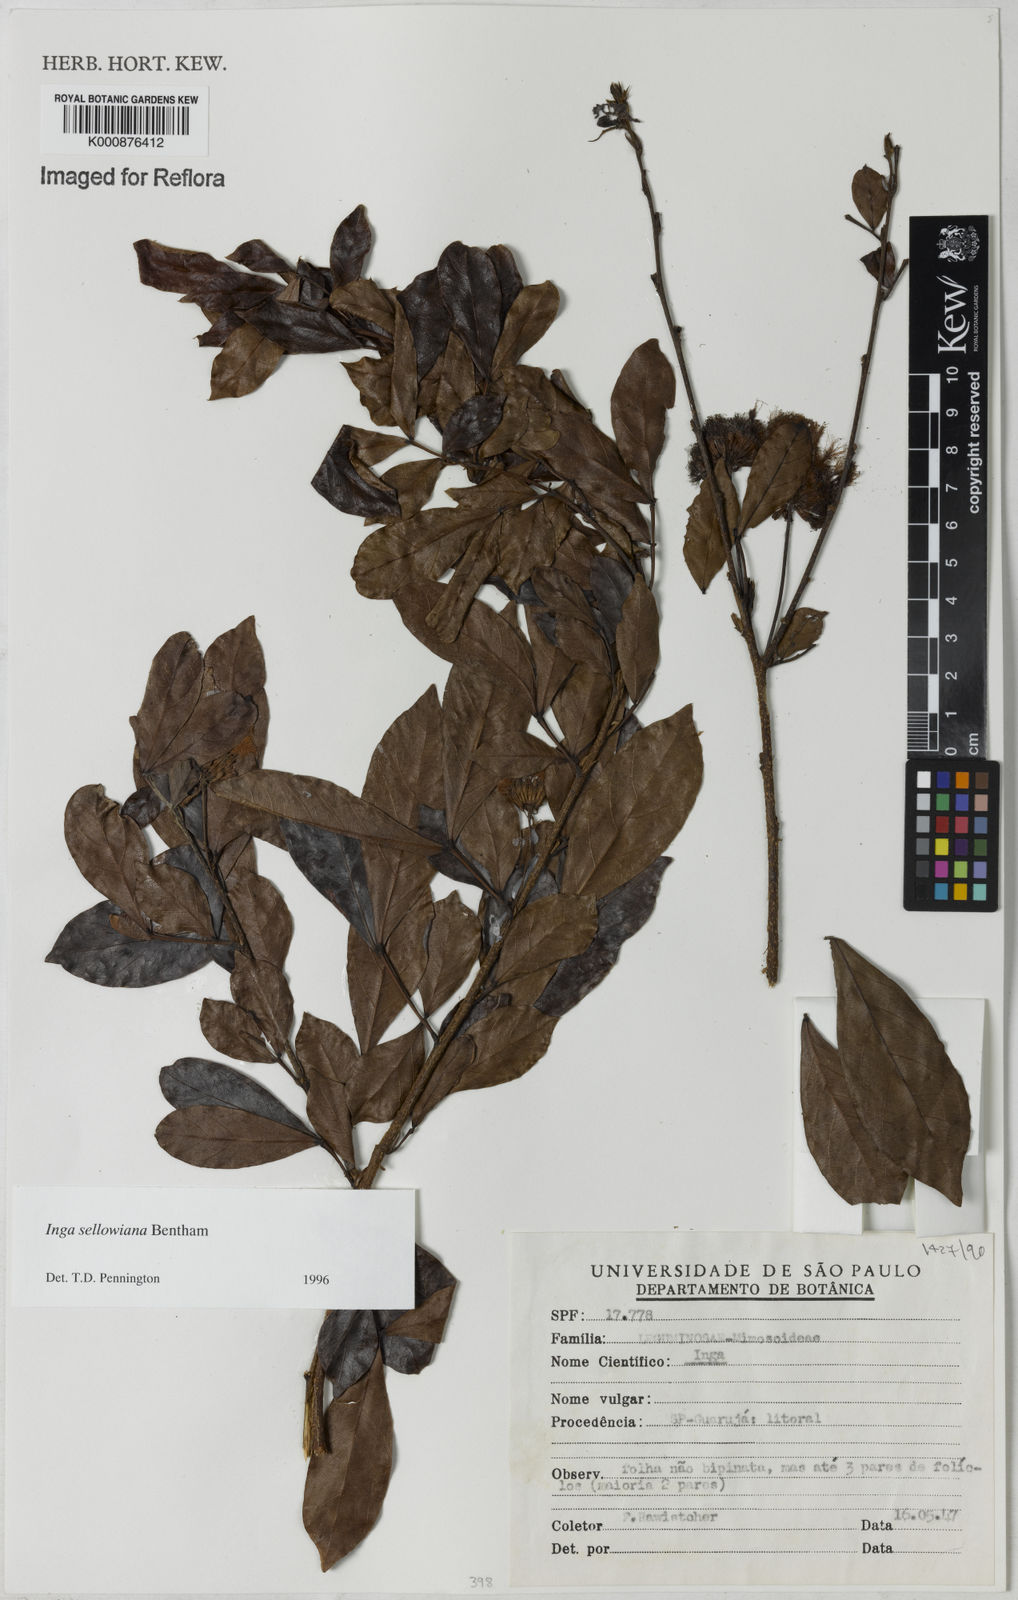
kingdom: Plantae
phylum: Tracheophyta
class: Magnoliopsida
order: Fabales
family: Fabaceae
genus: Inga
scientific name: Inga sellowiana
